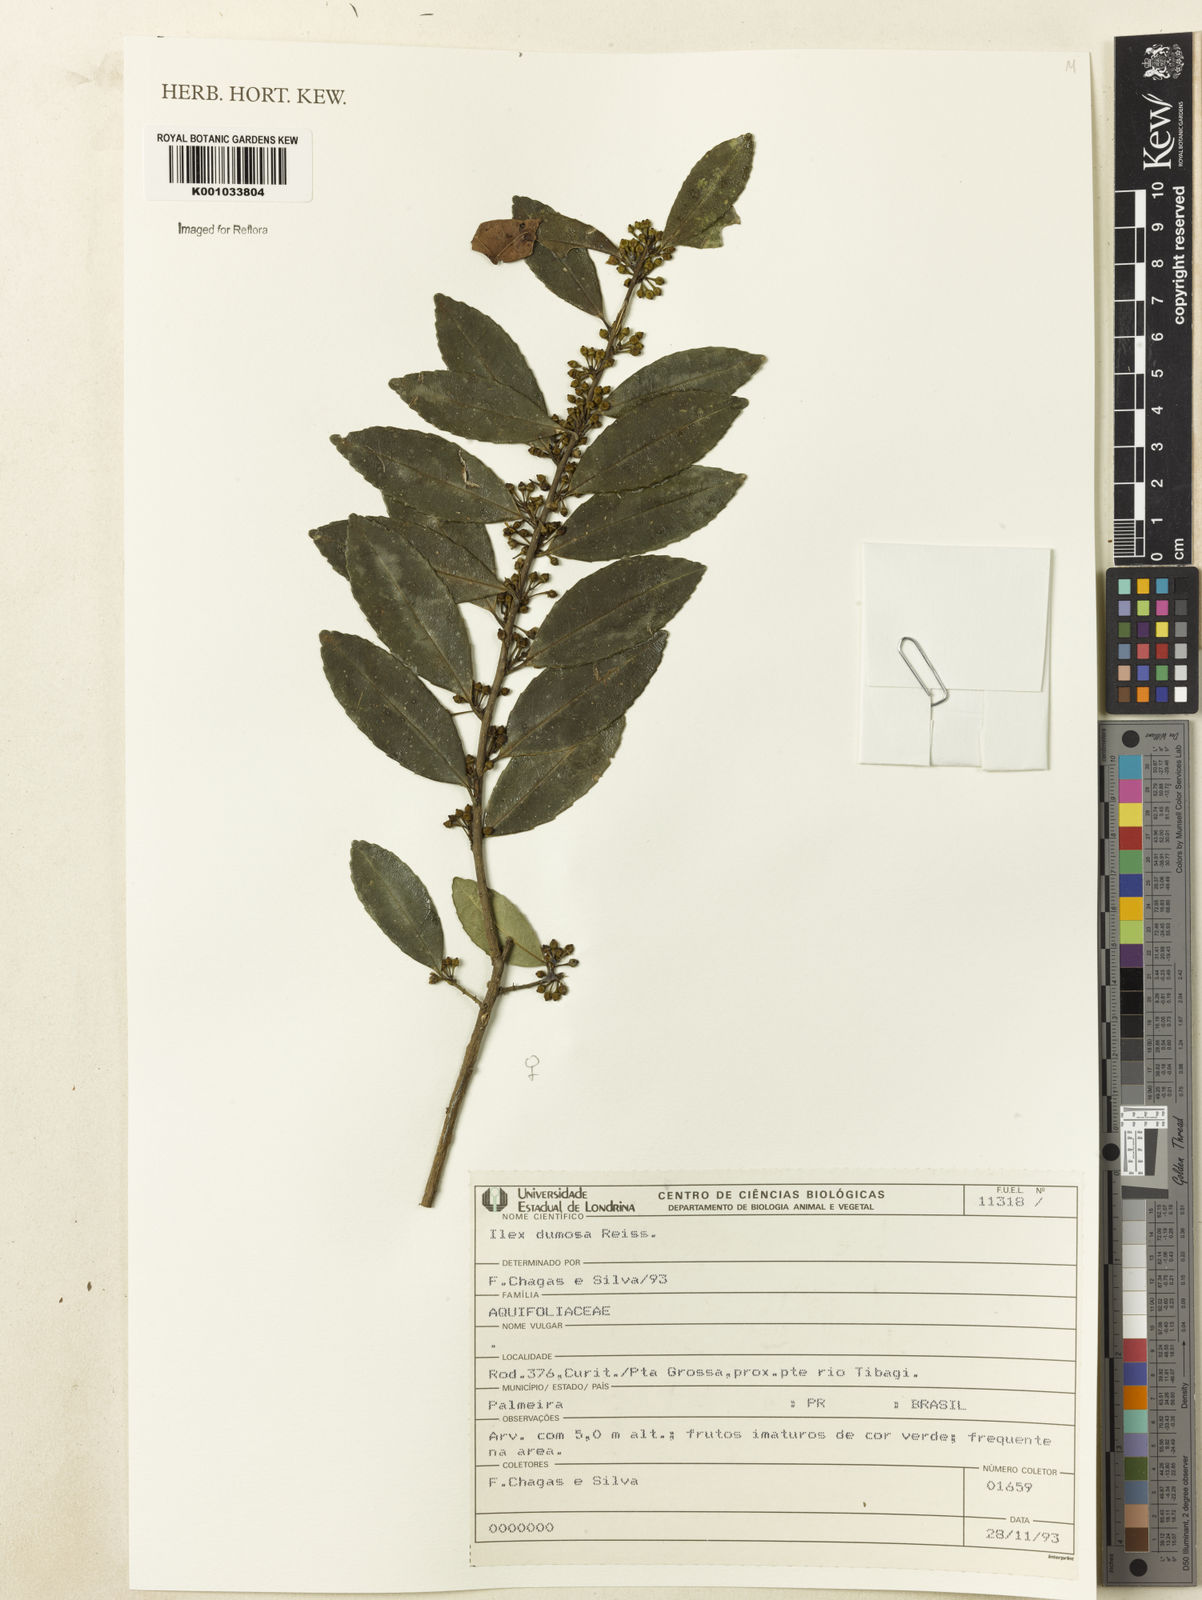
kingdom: Plantae
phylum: Tracheophyta
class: Magnoliopsida
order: Aquifoliales
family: Aquifoliaceae
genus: Ilex
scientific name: Ilex dumosa
